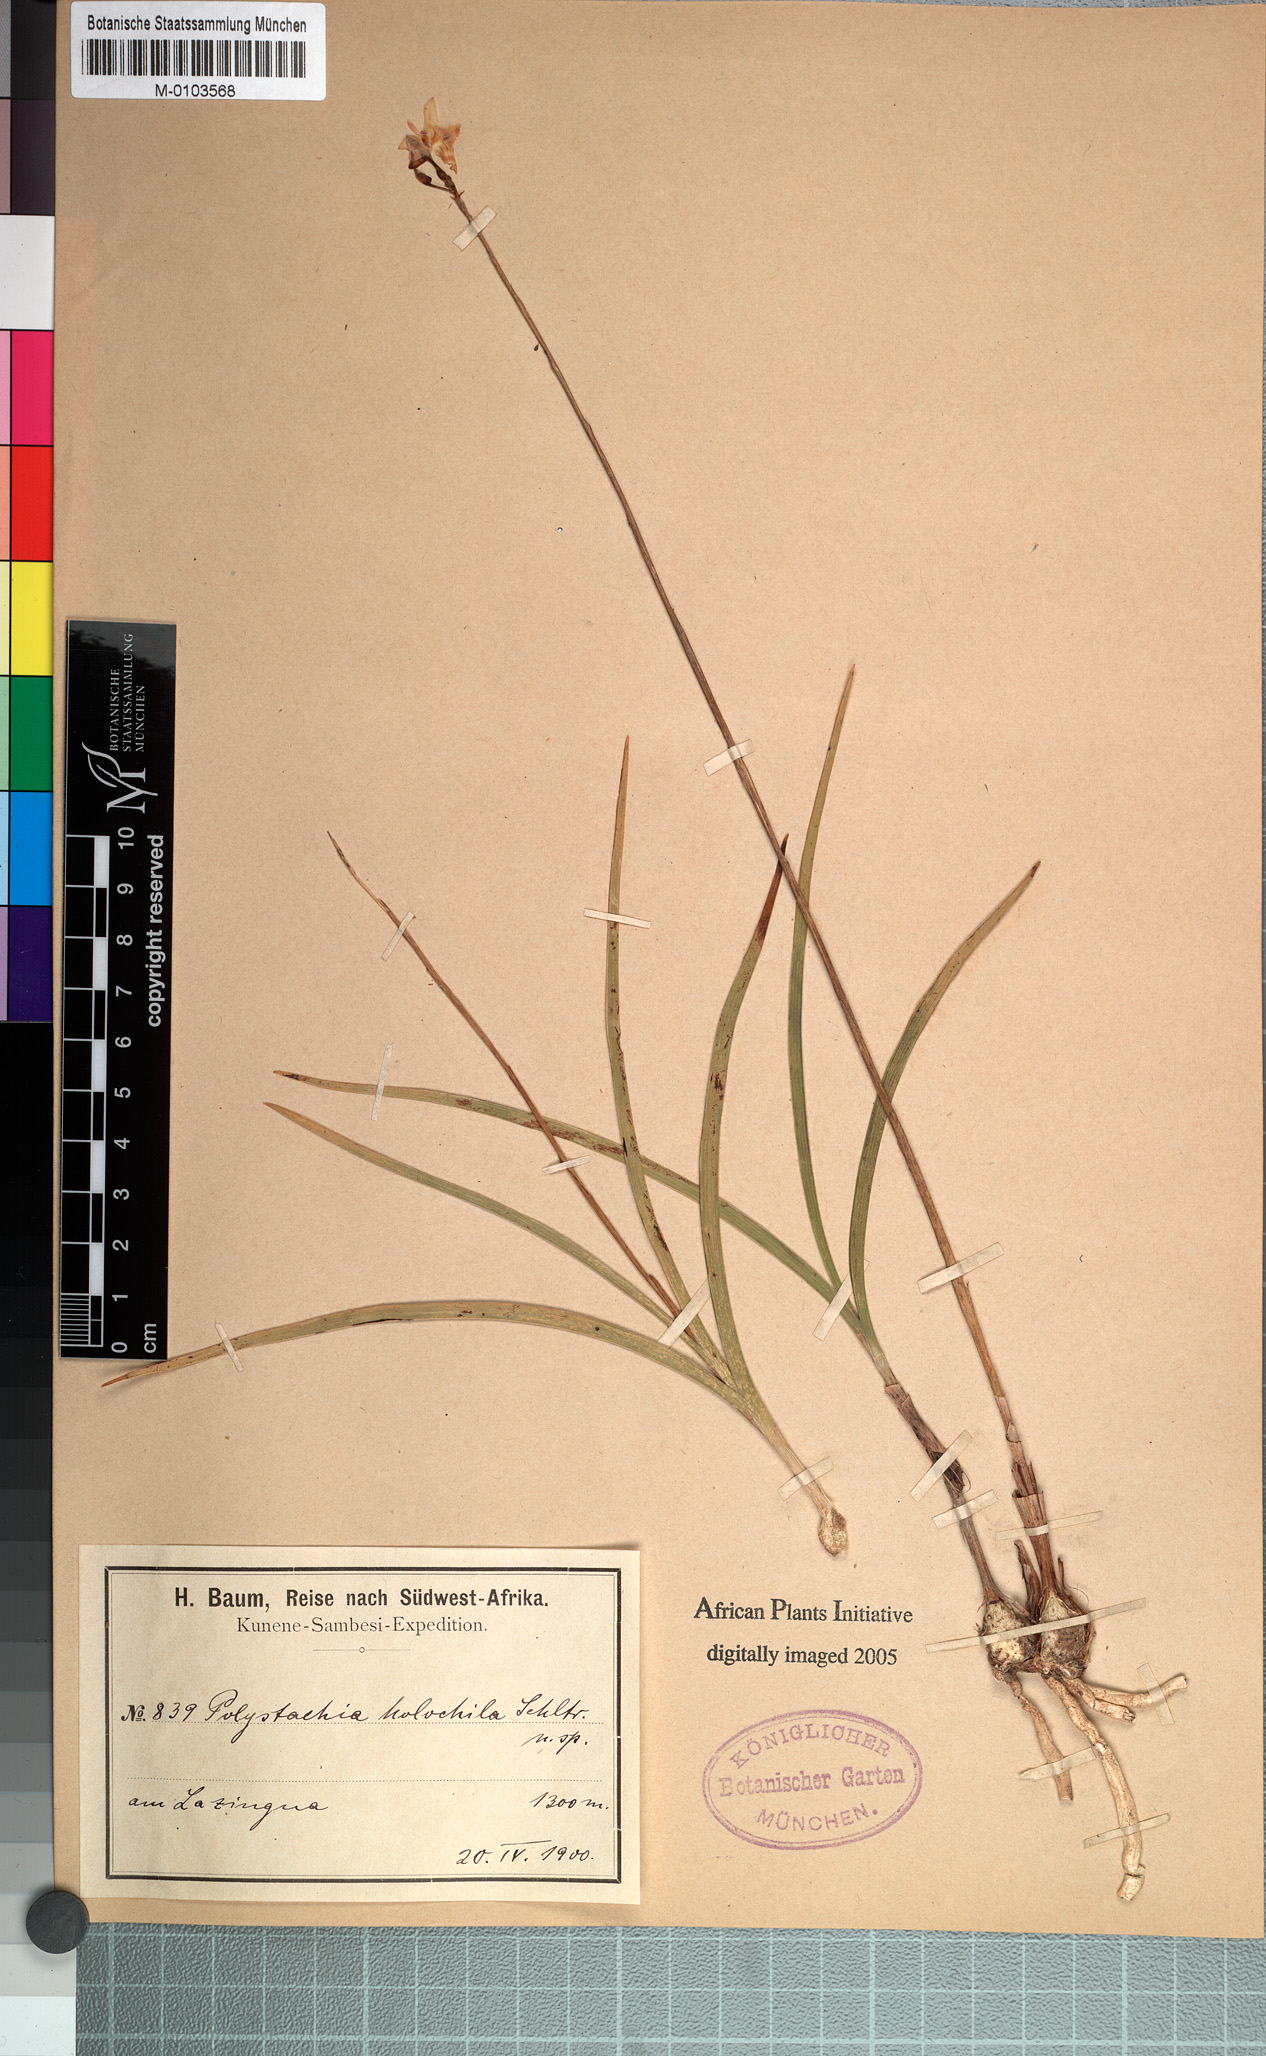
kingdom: Plantae
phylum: Tracheophyta
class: Liliopsida
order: Asparagales
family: Orchidaceae
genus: Polystachya
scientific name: Polystachya dendrobiiflora
